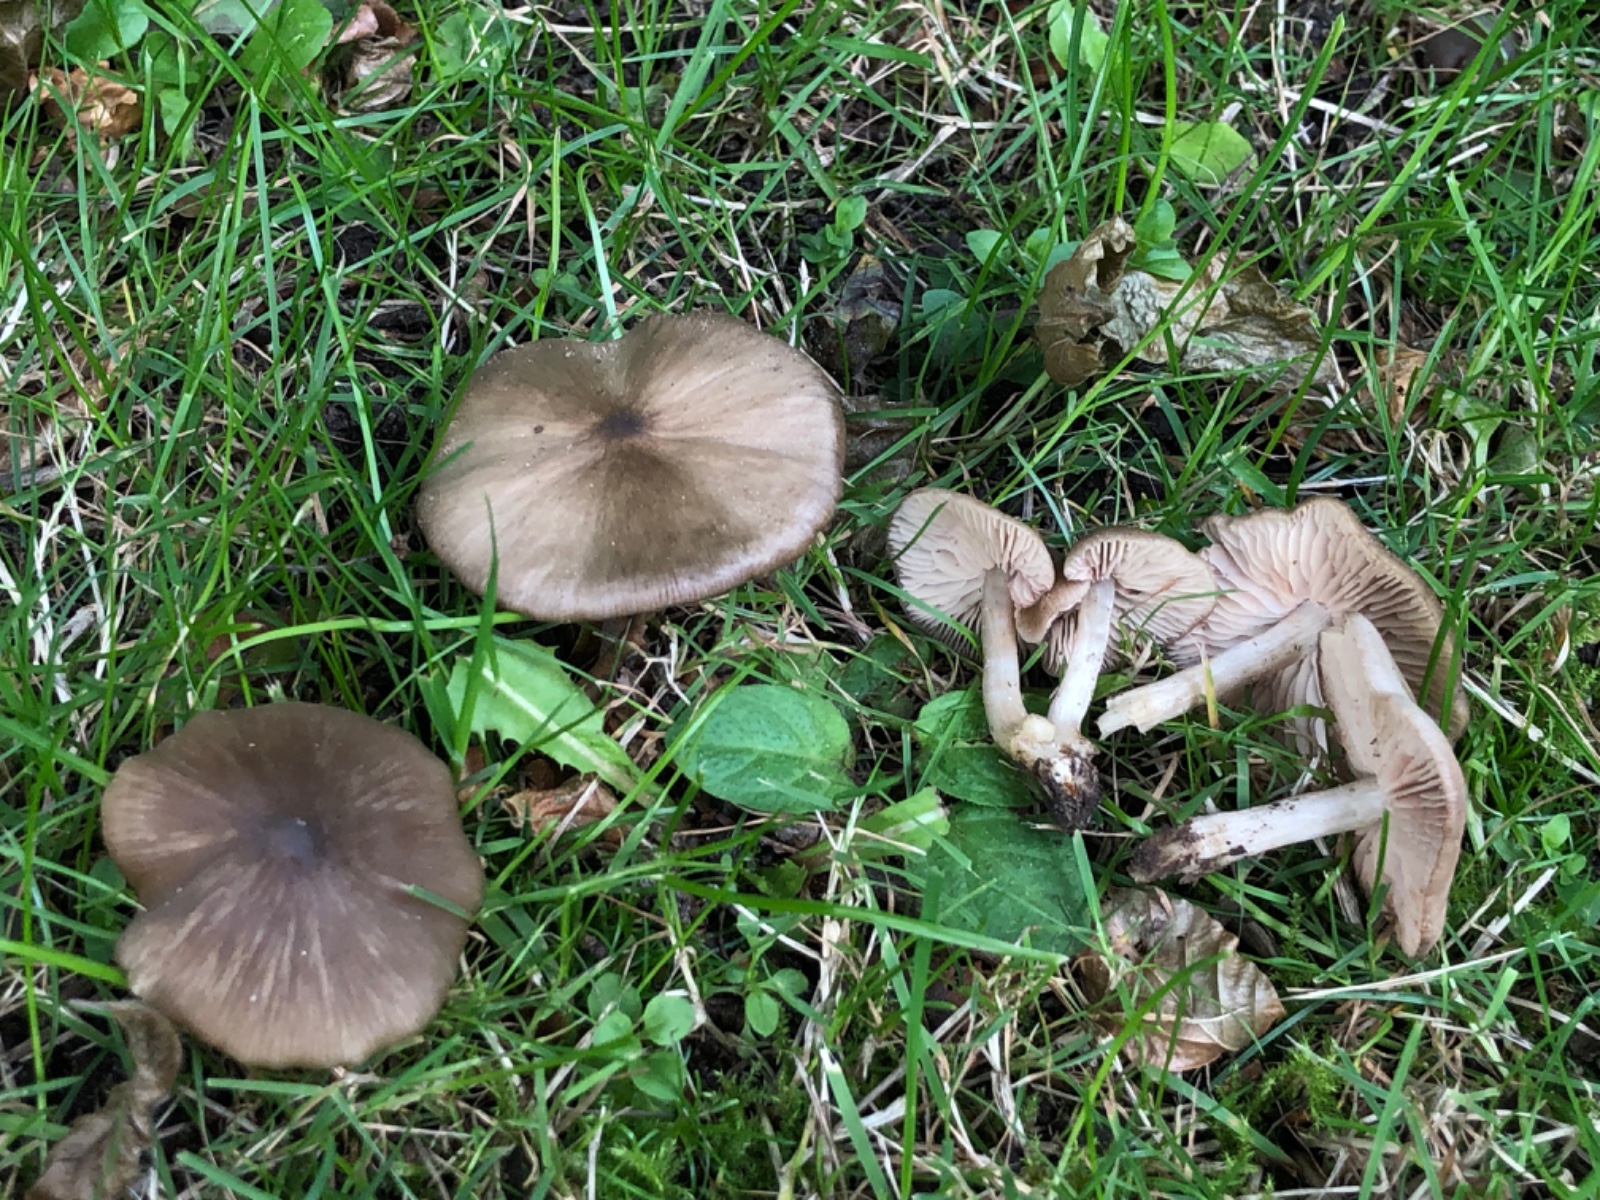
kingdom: Fungi
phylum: Basidiomycota
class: Agaricomycetes
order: Agaricales
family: Entolomataceae
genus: Entoloma
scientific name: Entoloma
